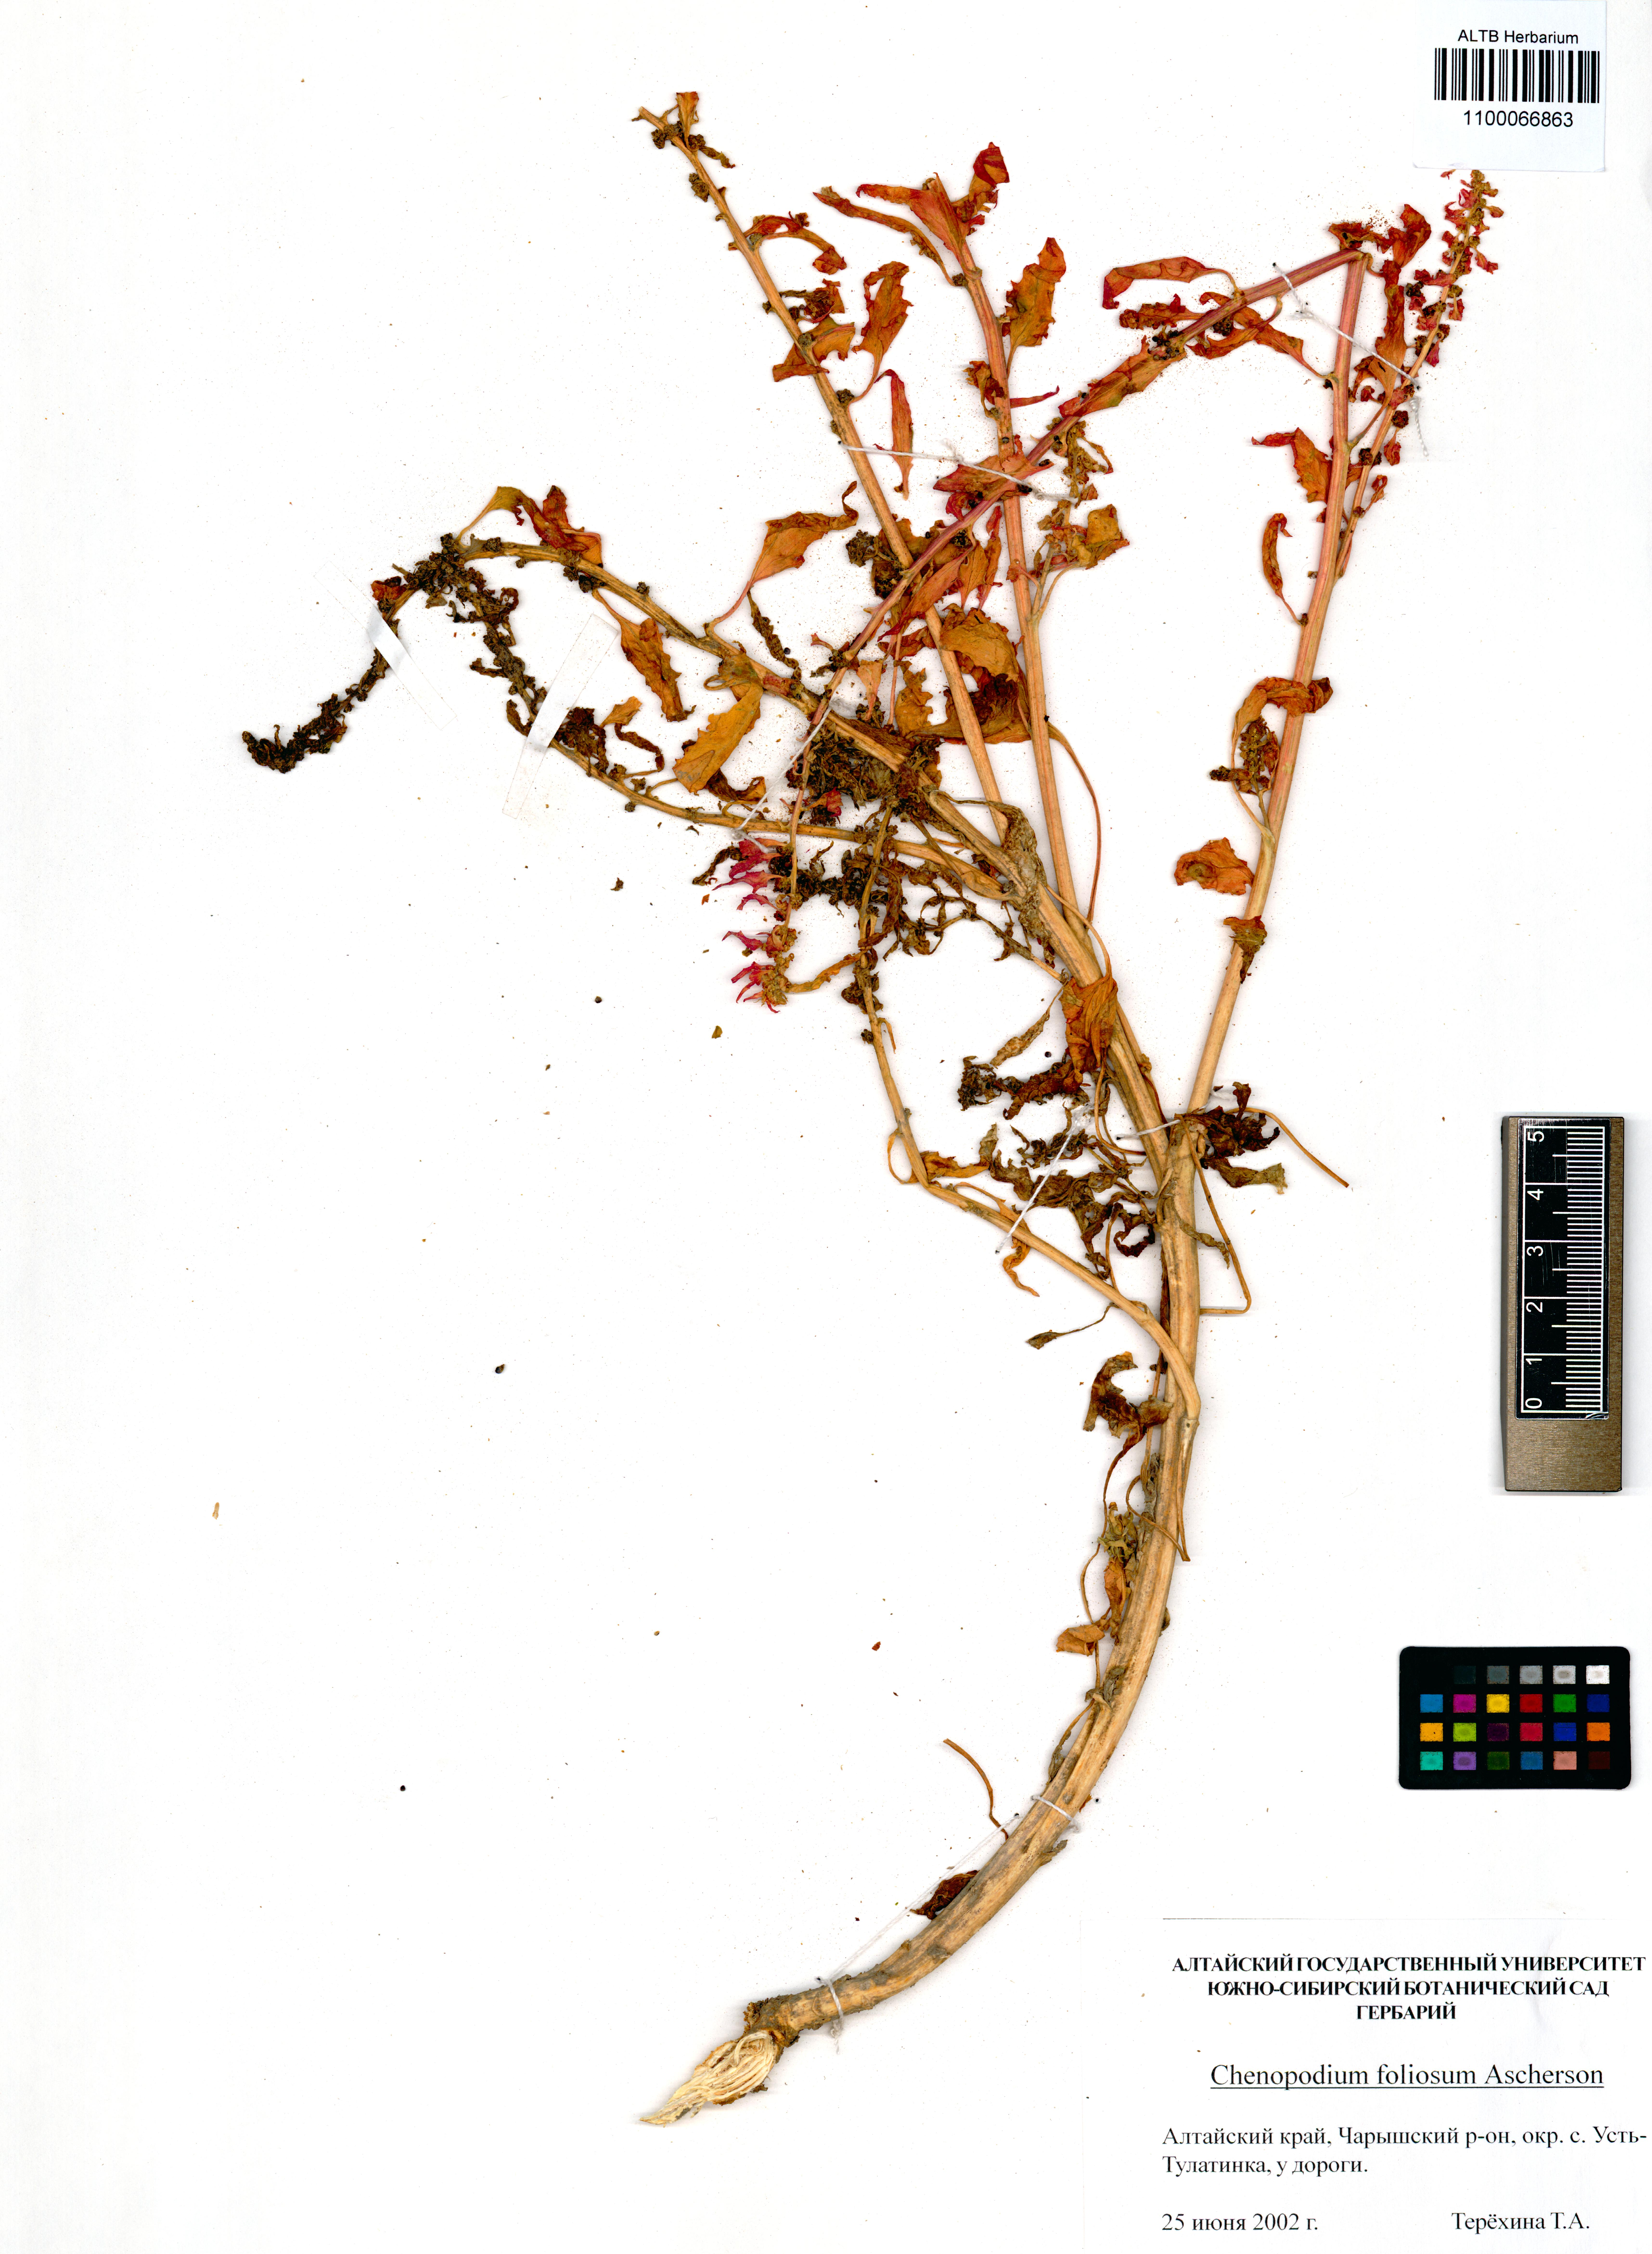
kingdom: Plantae
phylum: Tracheophyta
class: Magnoliopsida
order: Caryophyllales
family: Amaranthaceae
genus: Blitum
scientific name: Blitum virgatum
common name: Strawberry goosefoot
